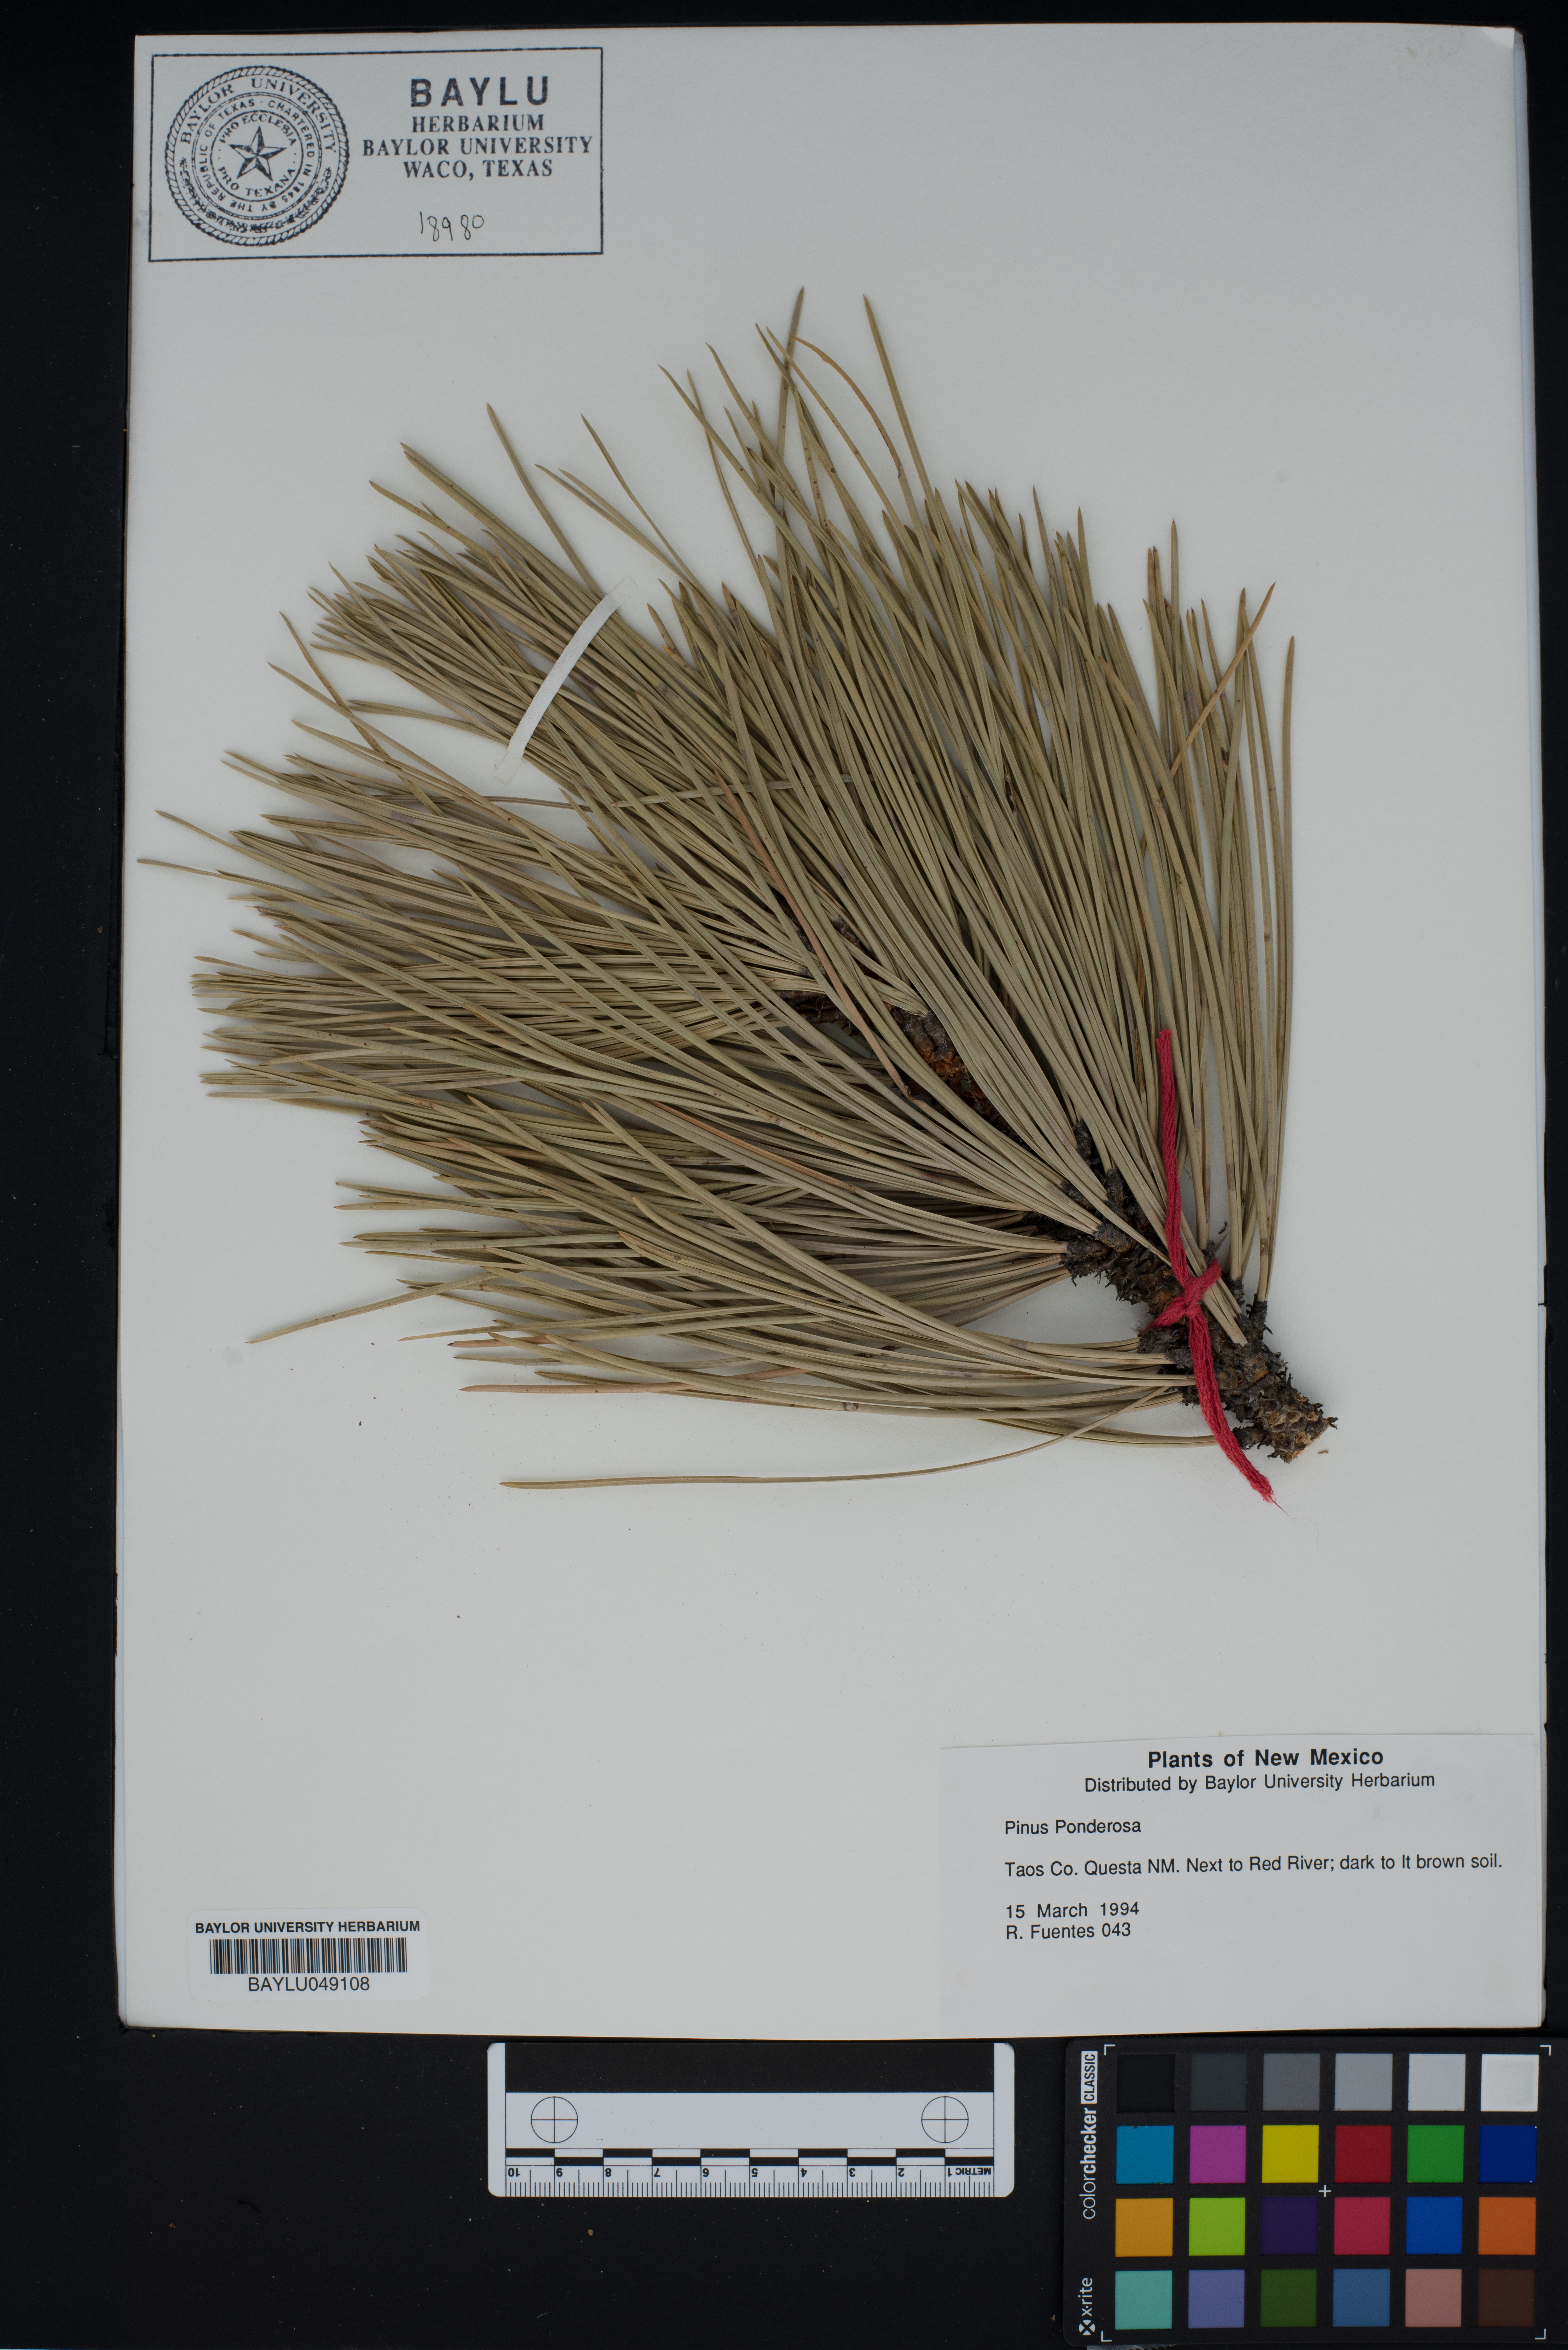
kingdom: Plantae
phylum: Tracheophyta
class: Pinopsida
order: Pinales
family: Pinaceae
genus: Pinus
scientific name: Pinus ponderosa
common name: Western yellow-pine
